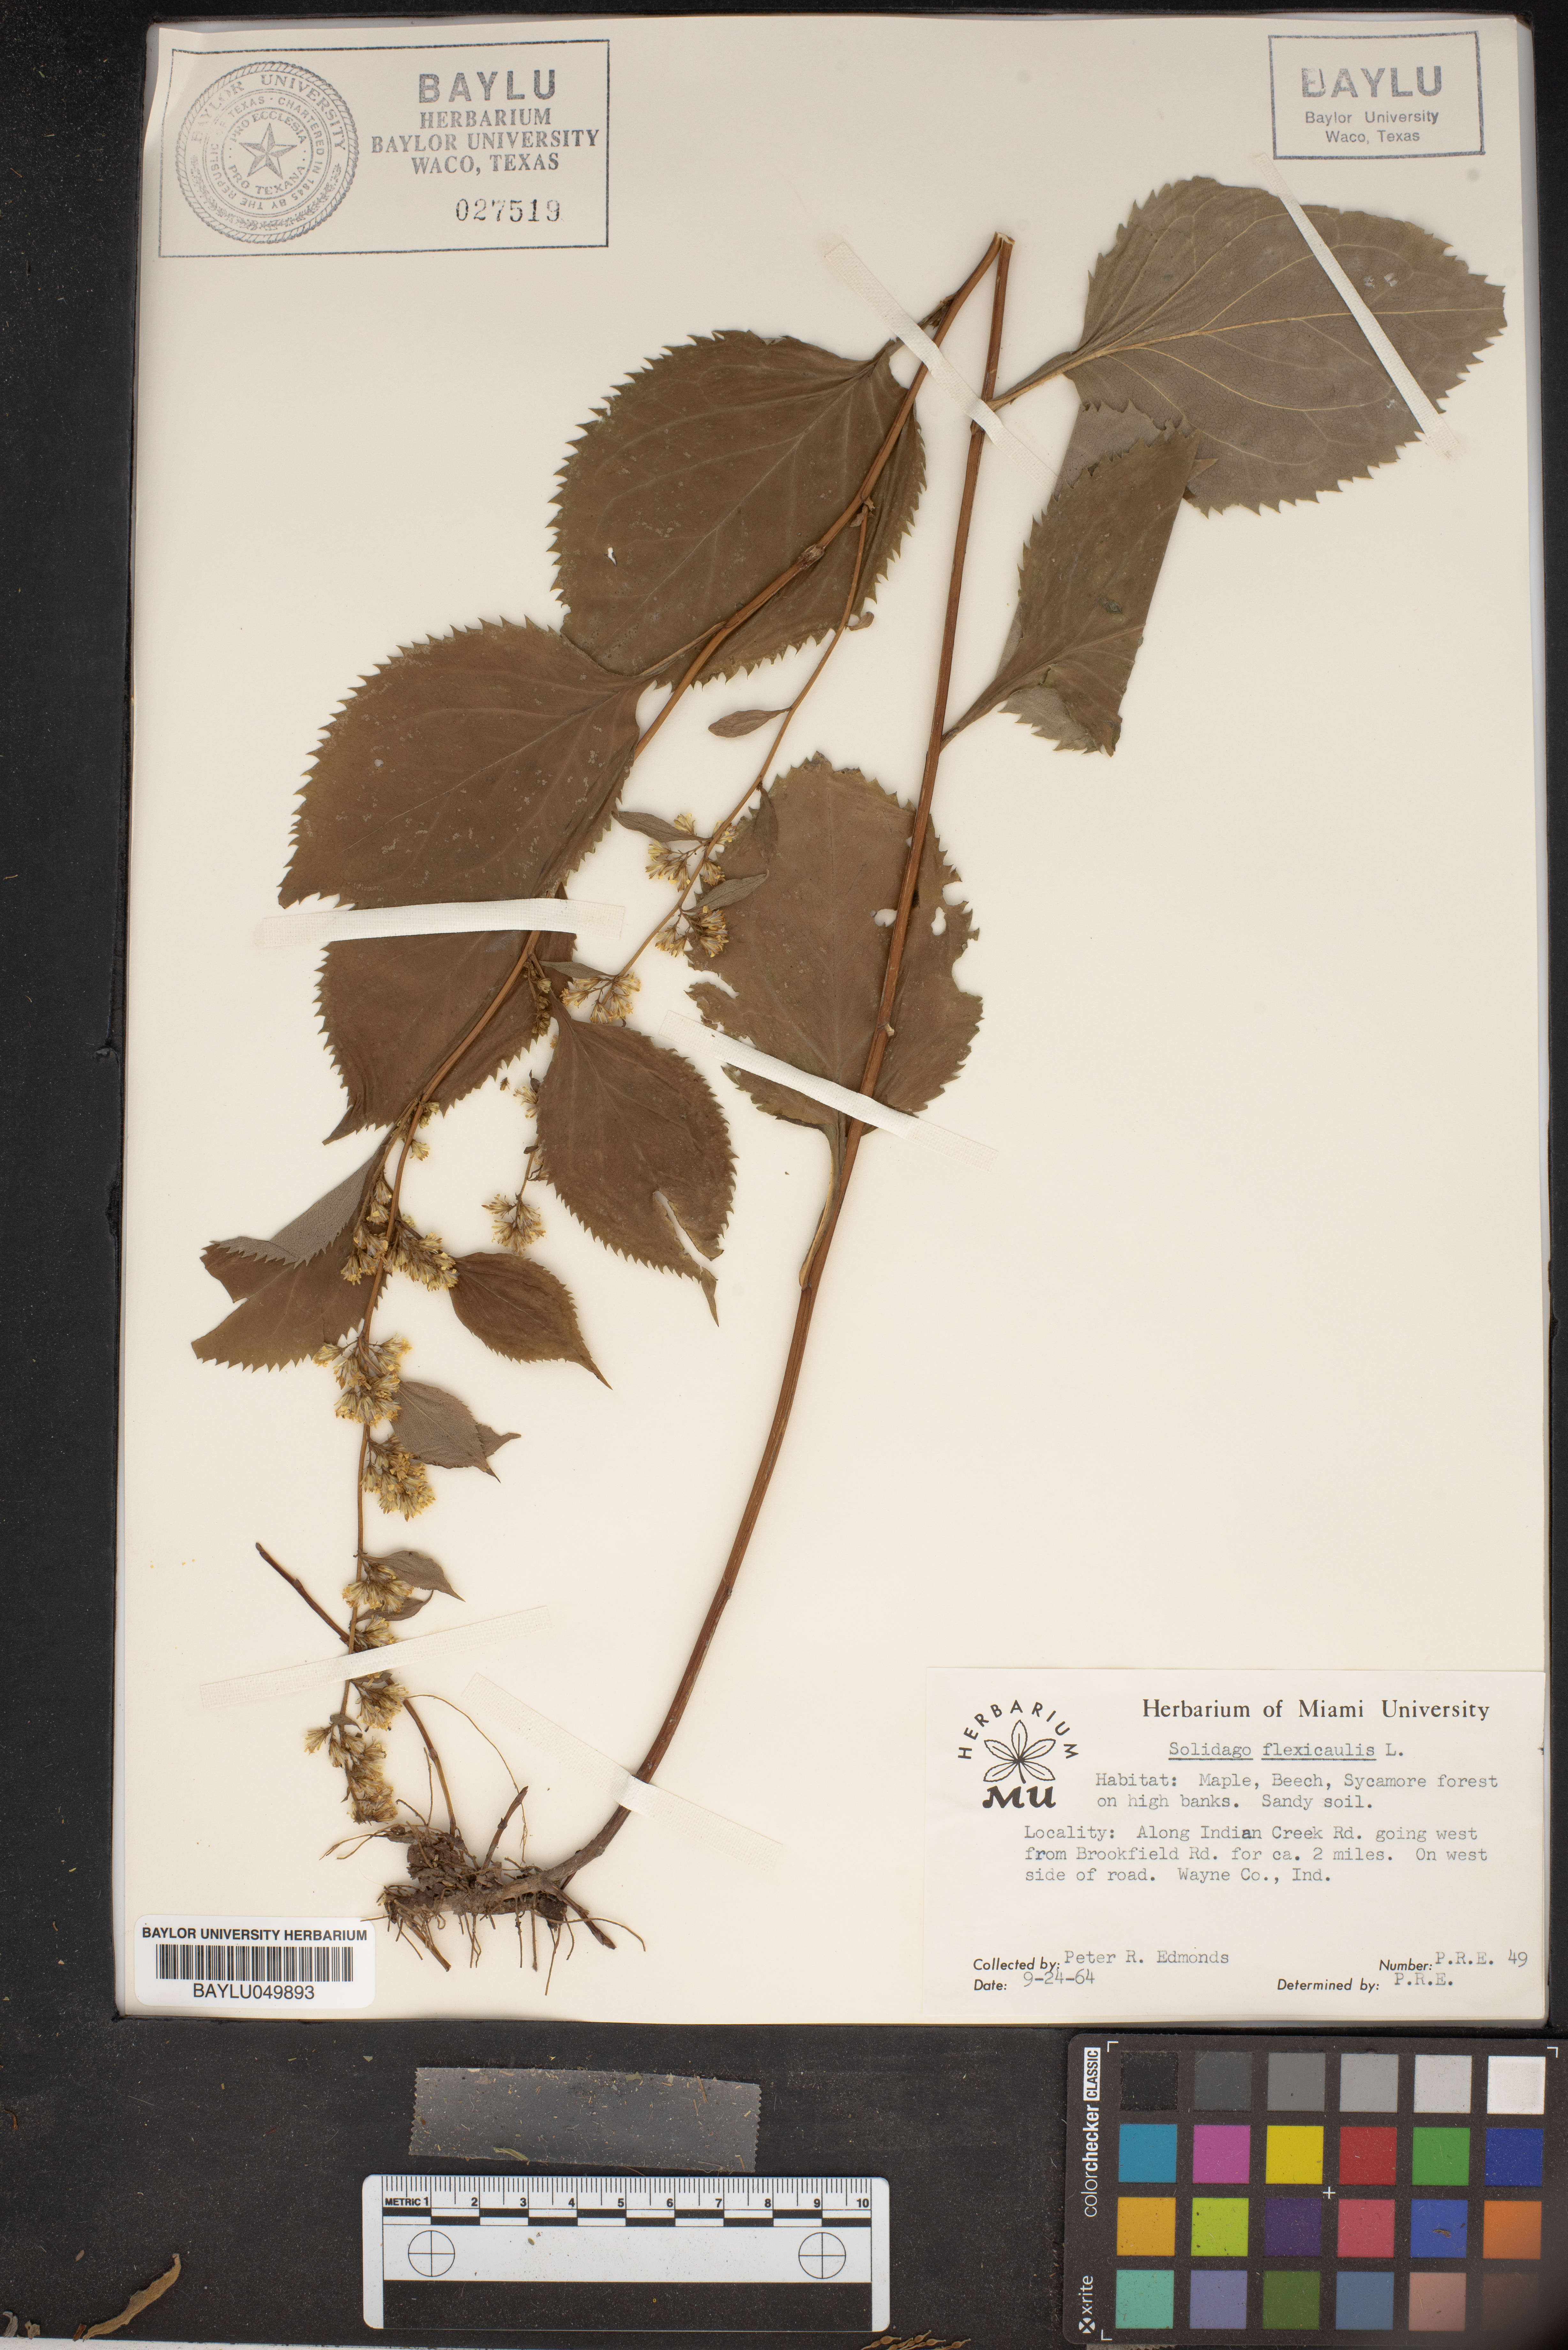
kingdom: Plantae
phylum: Tracheophyta
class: Magnoliopsida
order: Asterales
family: Asteraceae
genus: Solidago
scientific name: Solidago flexicaulis
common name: Zig-zag goldenrod
